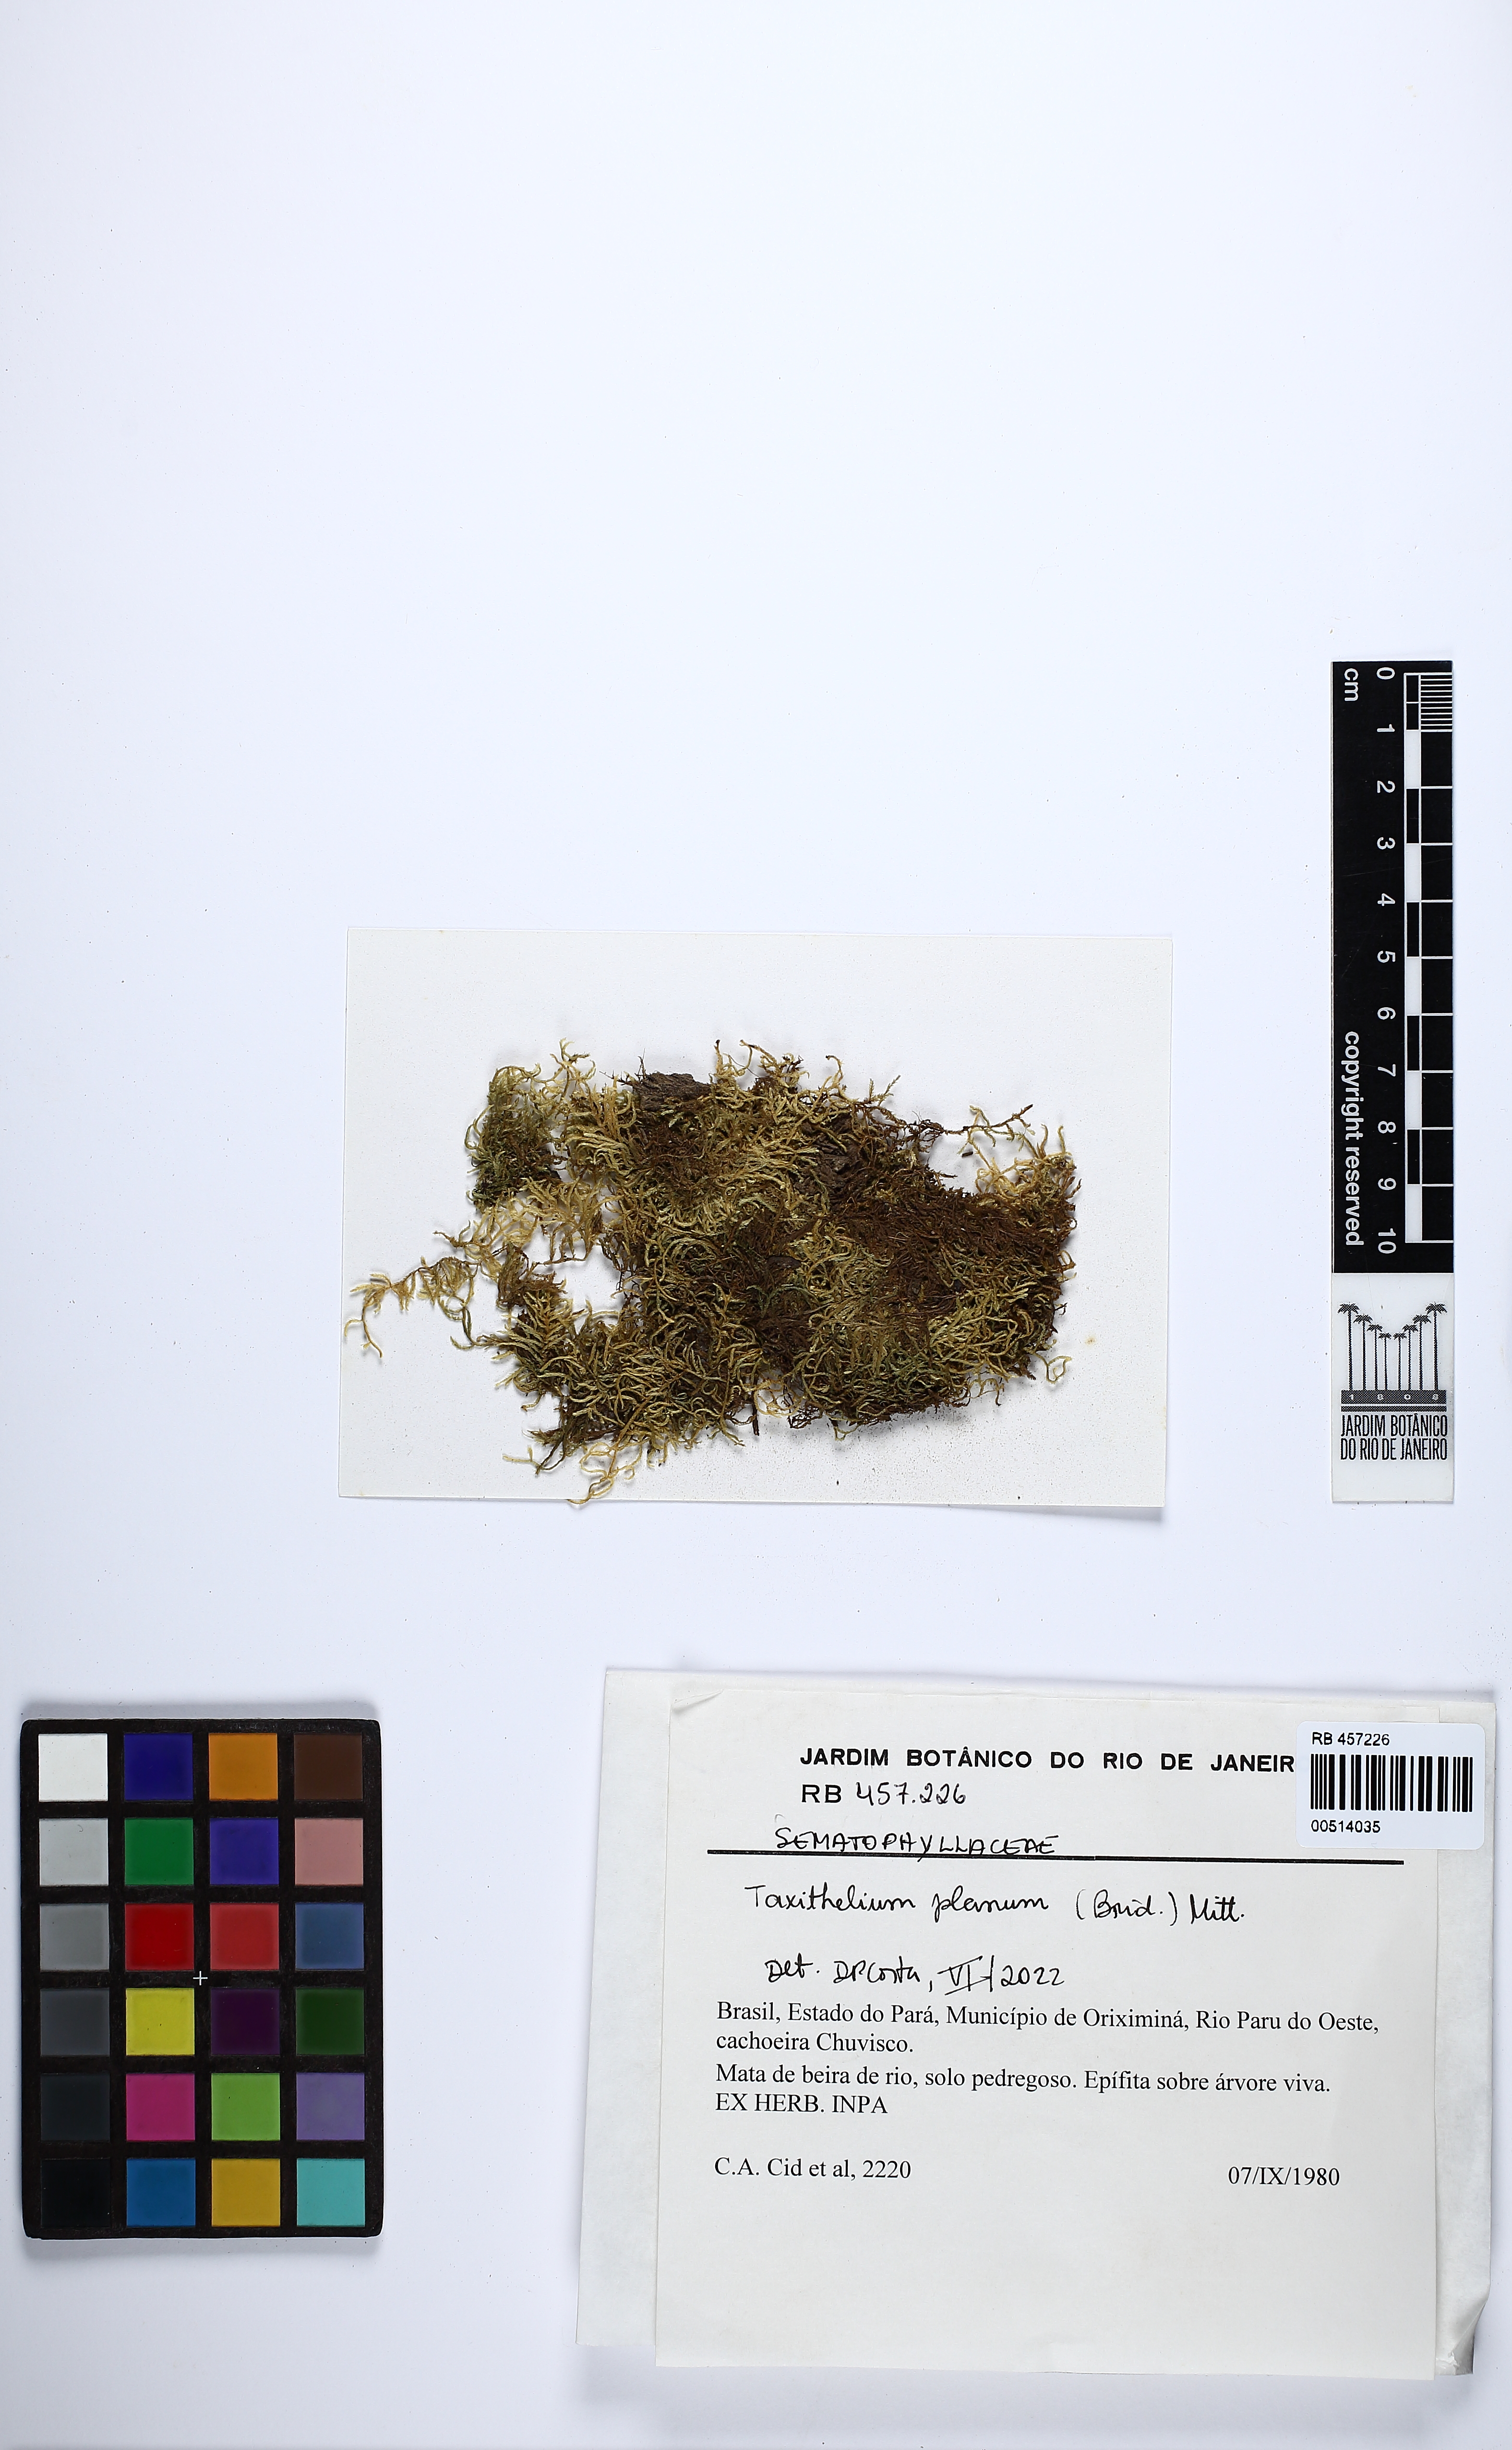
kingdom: Plantae
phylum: Bryophyta
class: Bryopsida
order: Hypnales
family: Pylaisiadelphaceae
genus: Taxithelium
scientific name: Taxithelium planum
